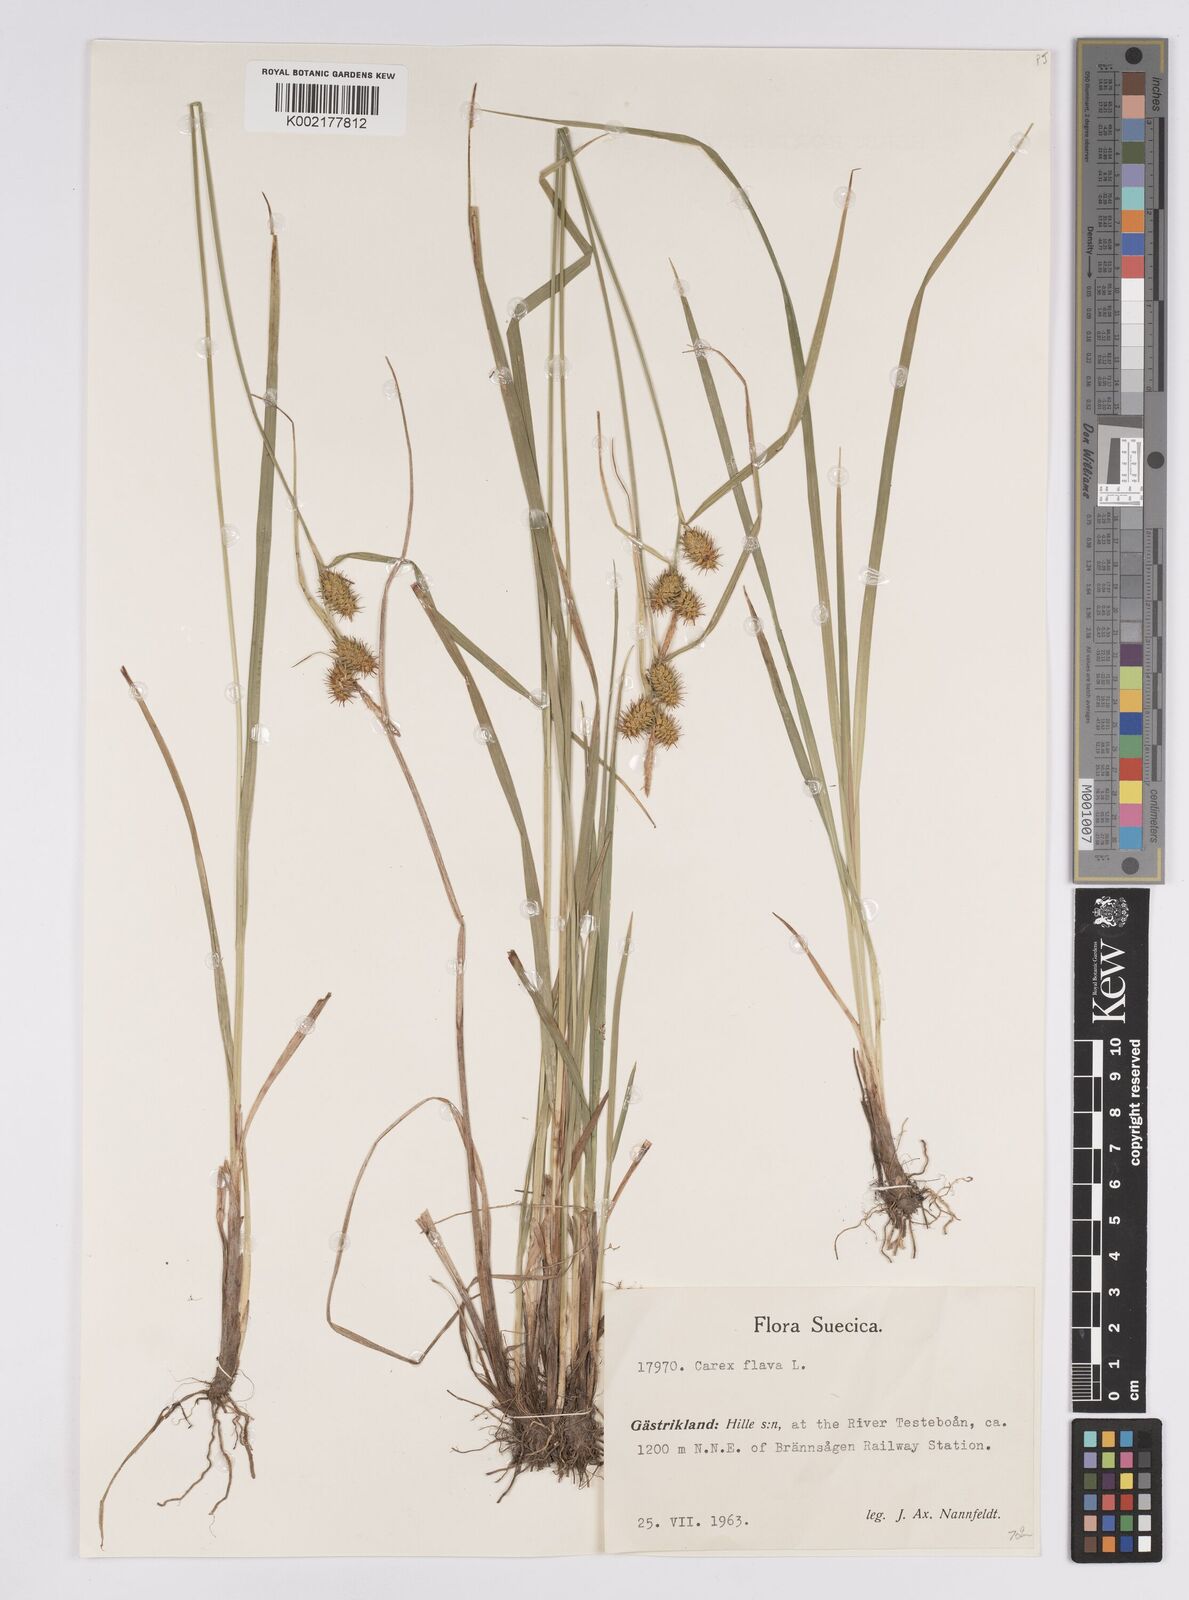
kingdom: Plantae
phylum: Tracheophyta
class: Liliopsida
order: Poales
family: Cyperaceae
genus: Carex
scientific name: Carex flava
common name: Large yellow-sedge
